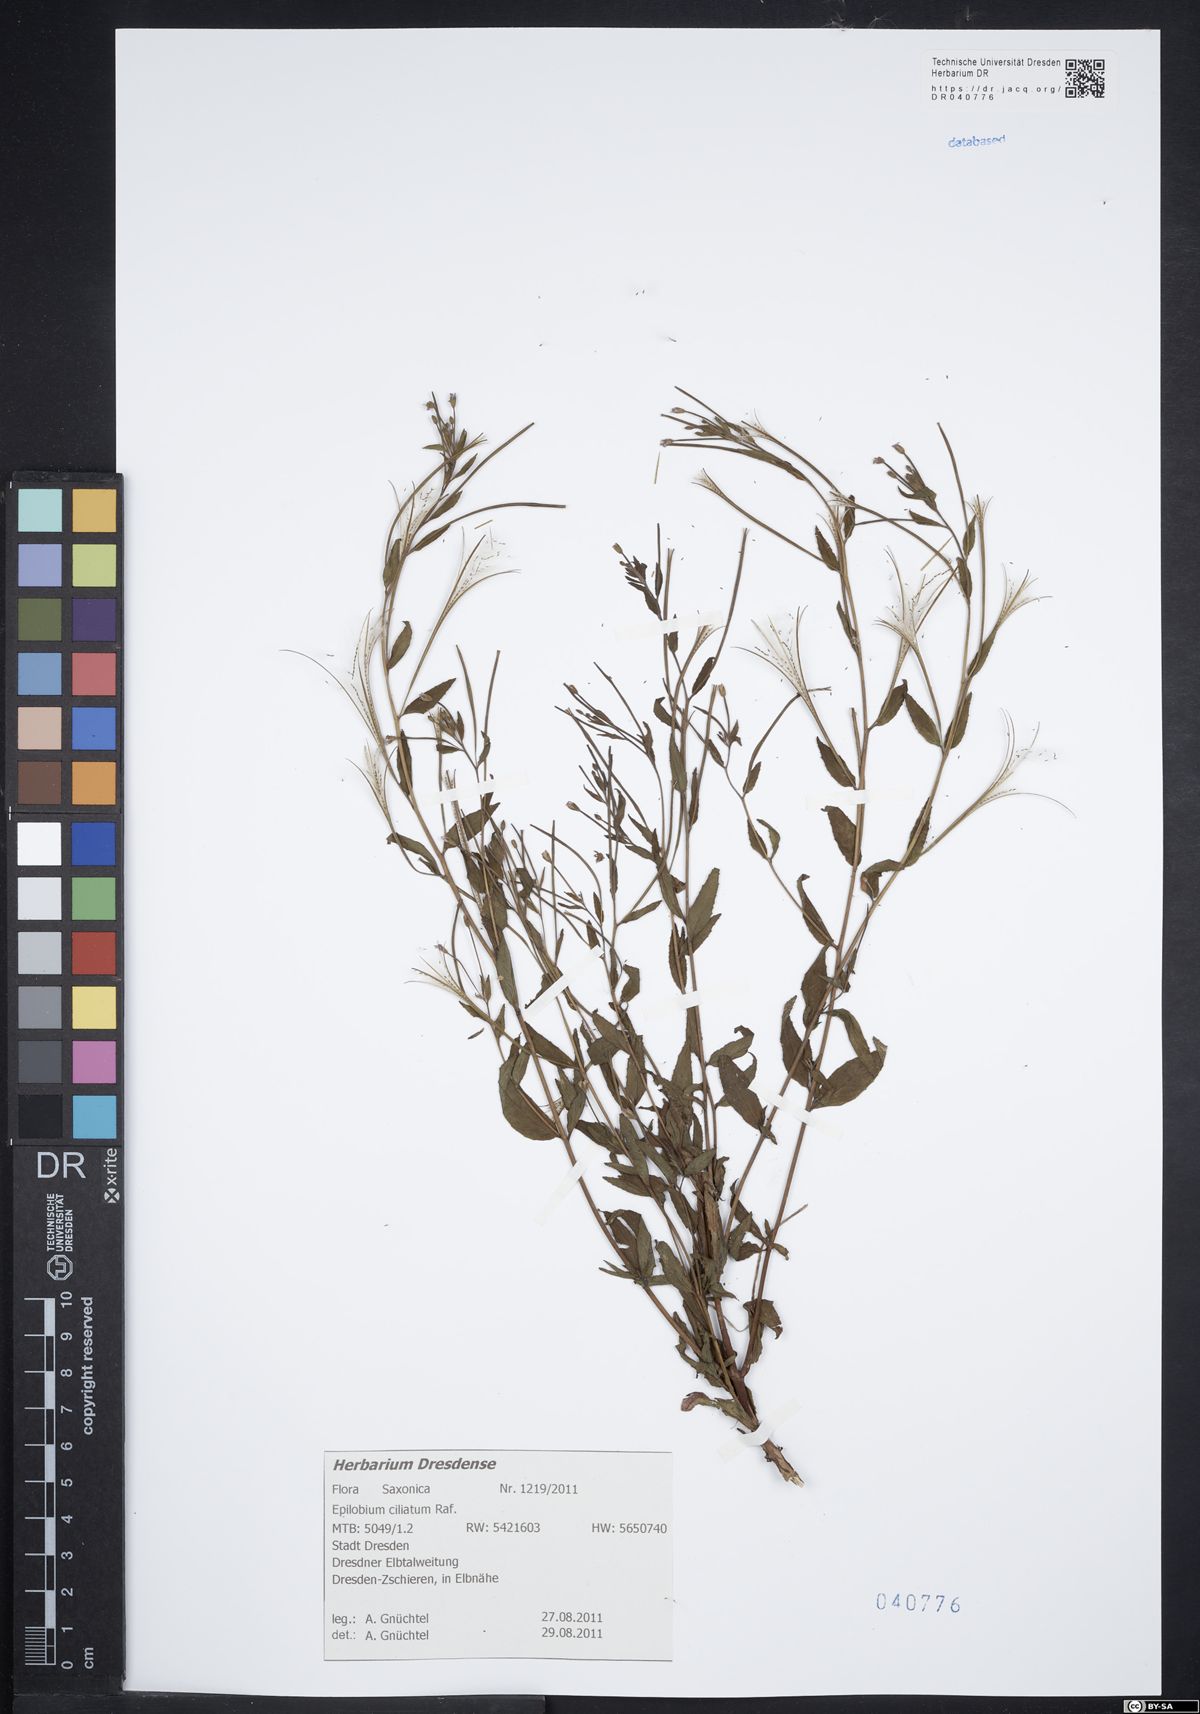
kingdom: Plantae
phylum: Tracheophyta
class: Magnoliopsida
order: Myrtales
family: Onagraceae
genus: Epilobium
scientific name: Epilobium ciliatum
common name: American willowherb
